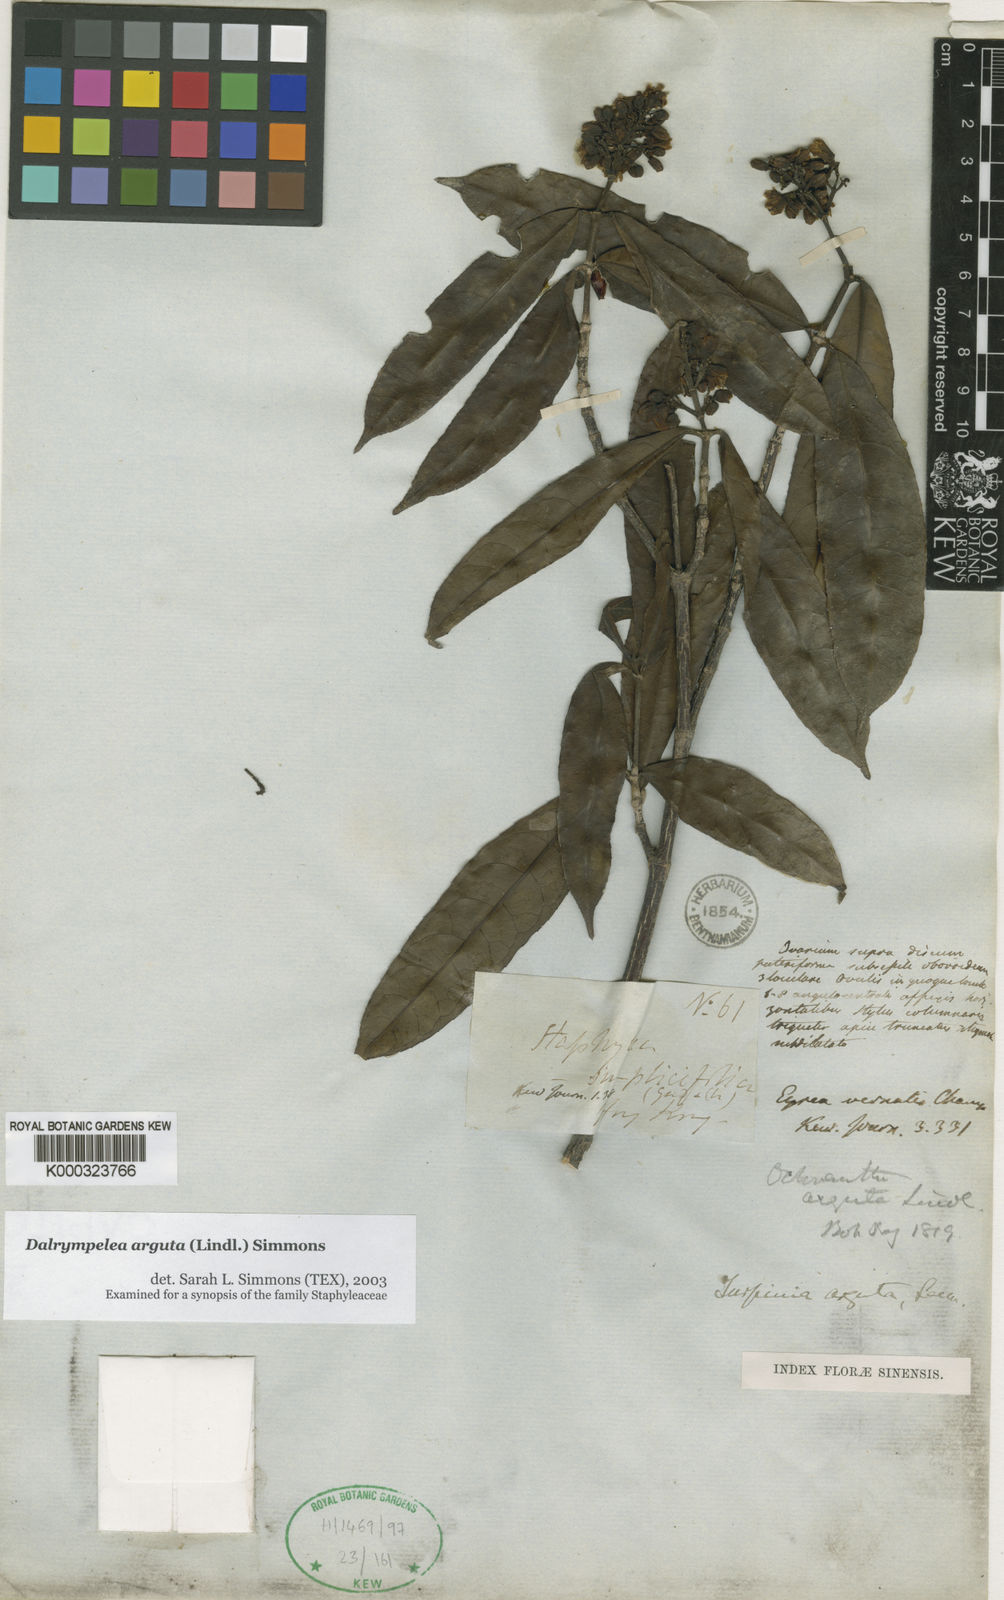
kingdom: Plantae
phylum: Tracheophyta
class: Magnoliopsida
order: Crossosomatales
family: Staphyleaceae
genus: Turpinia
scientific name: Turpinia arguta
